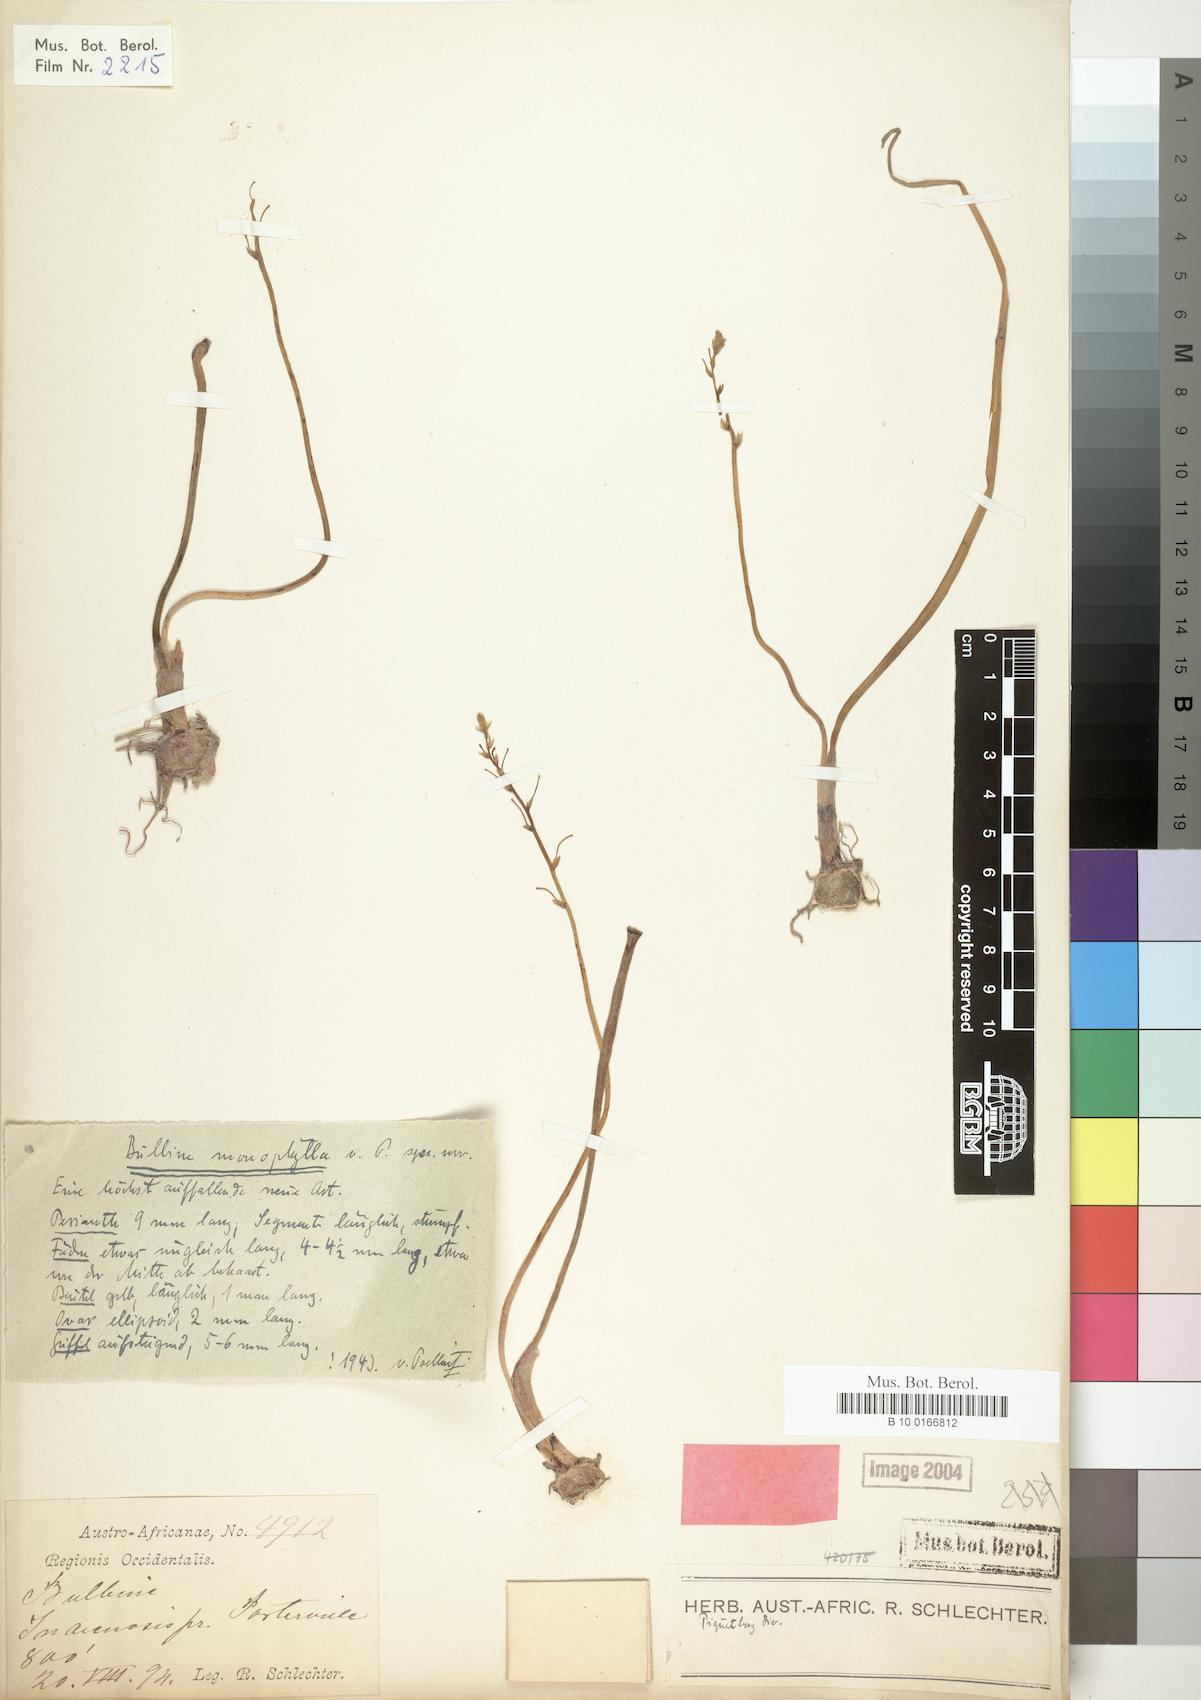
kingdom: Plantae
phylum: Tracheophyta
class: Liliopsida
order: Asparagales
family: Asphodelaceae
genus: Bulbine
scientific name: Bulbine monophylla
